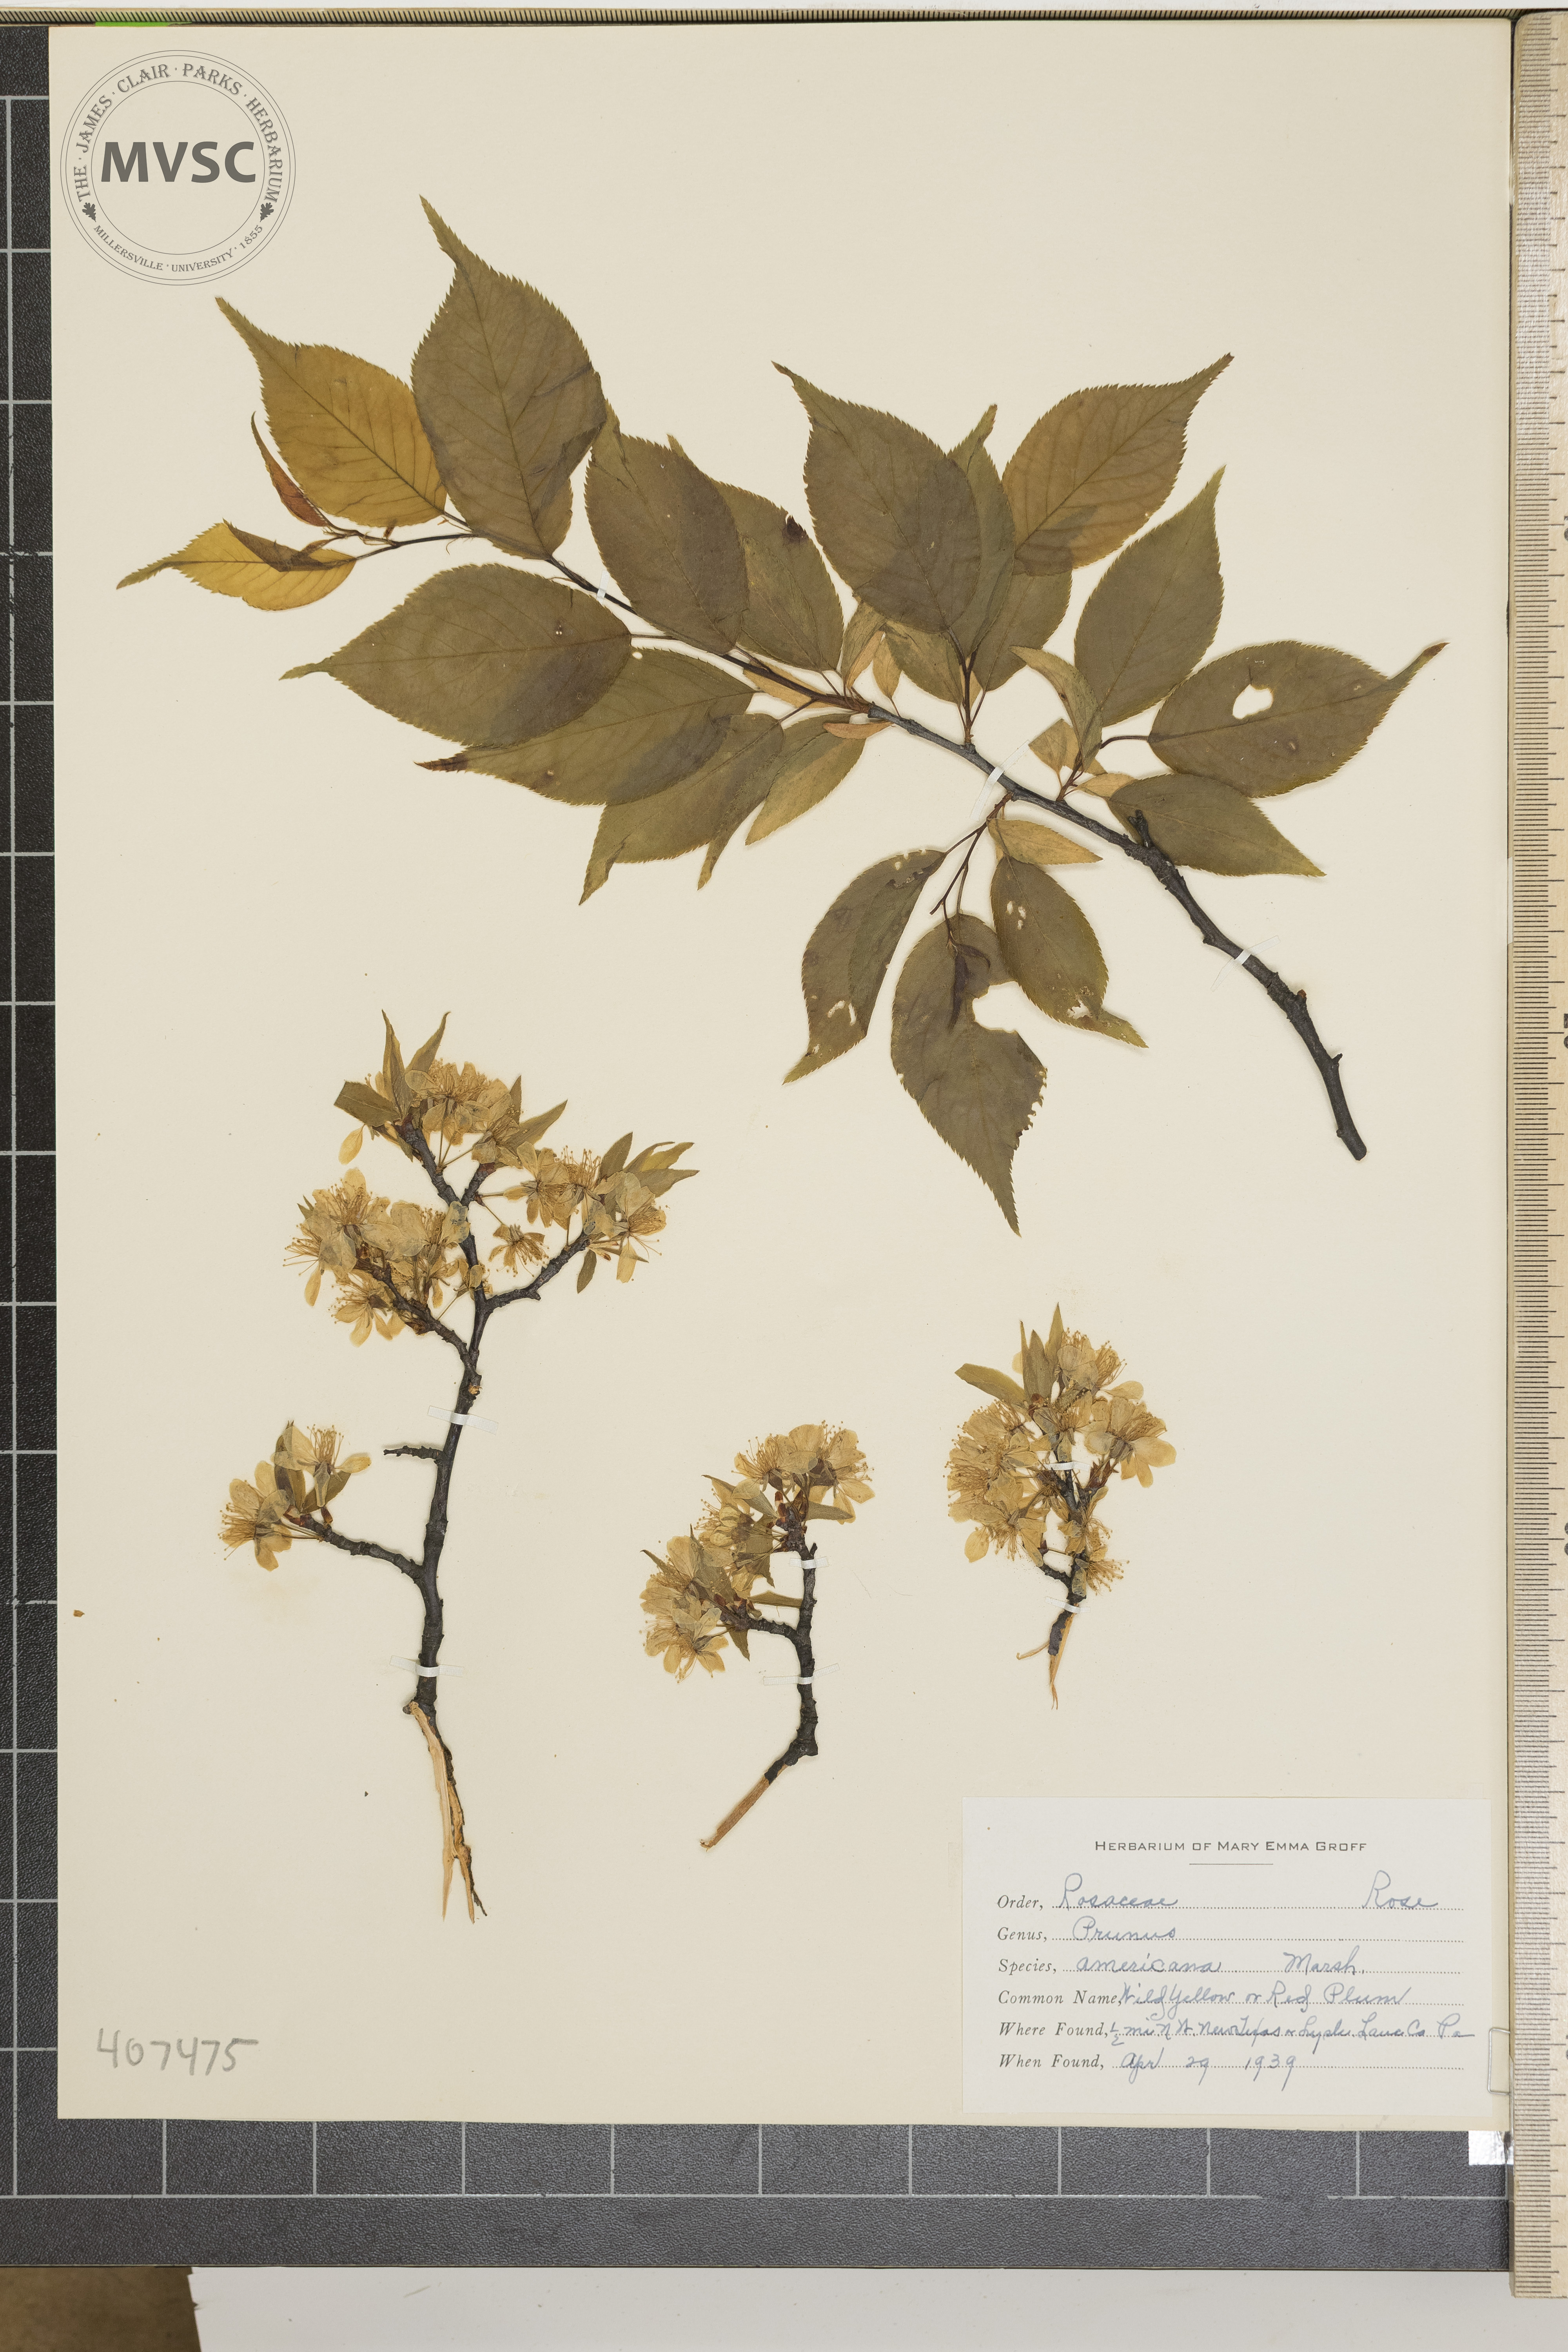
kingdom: Plantae
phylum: Tracheophyta
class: Magnoliopsida
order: Rosales
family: Rosaceae
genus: Prunus
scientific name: Prunus americana
